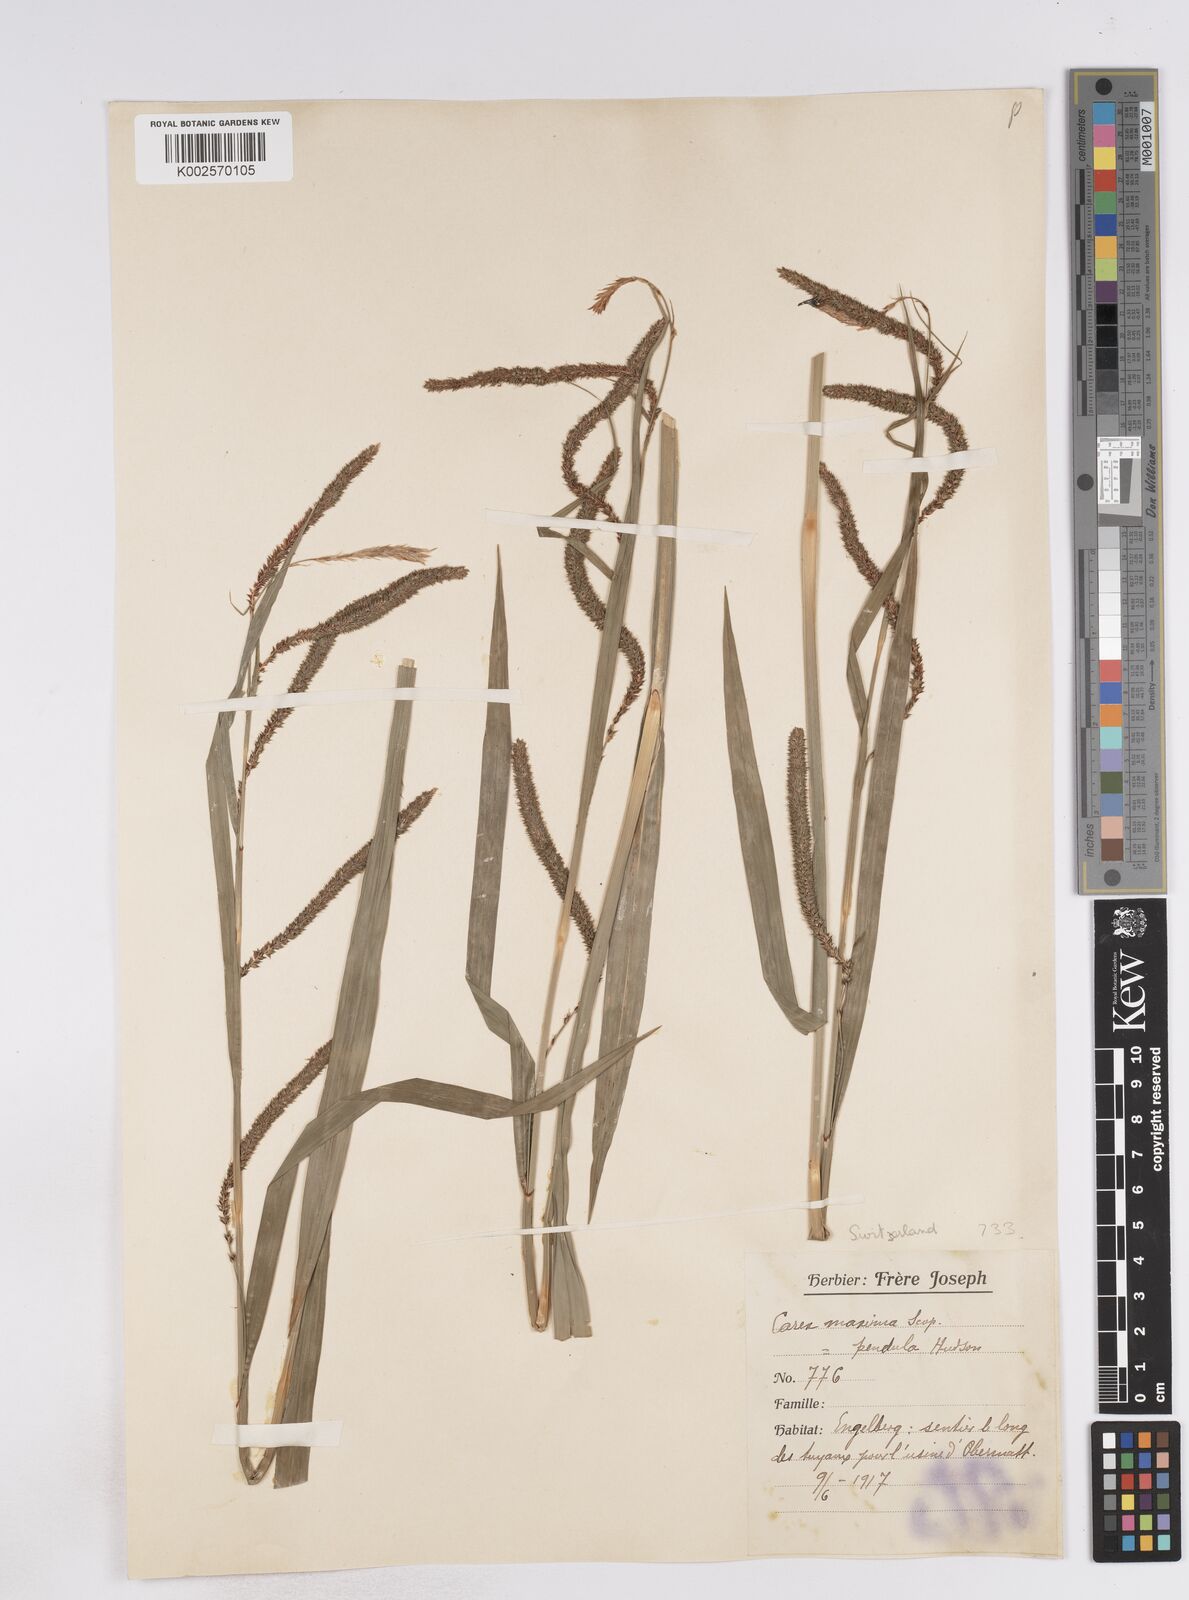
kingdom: Plantae
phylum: Tracheophyta
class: Liliopsida
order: Poales
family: Cyperaceae
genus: Carex
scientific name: Carex pendula
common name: Pendulous sedge
